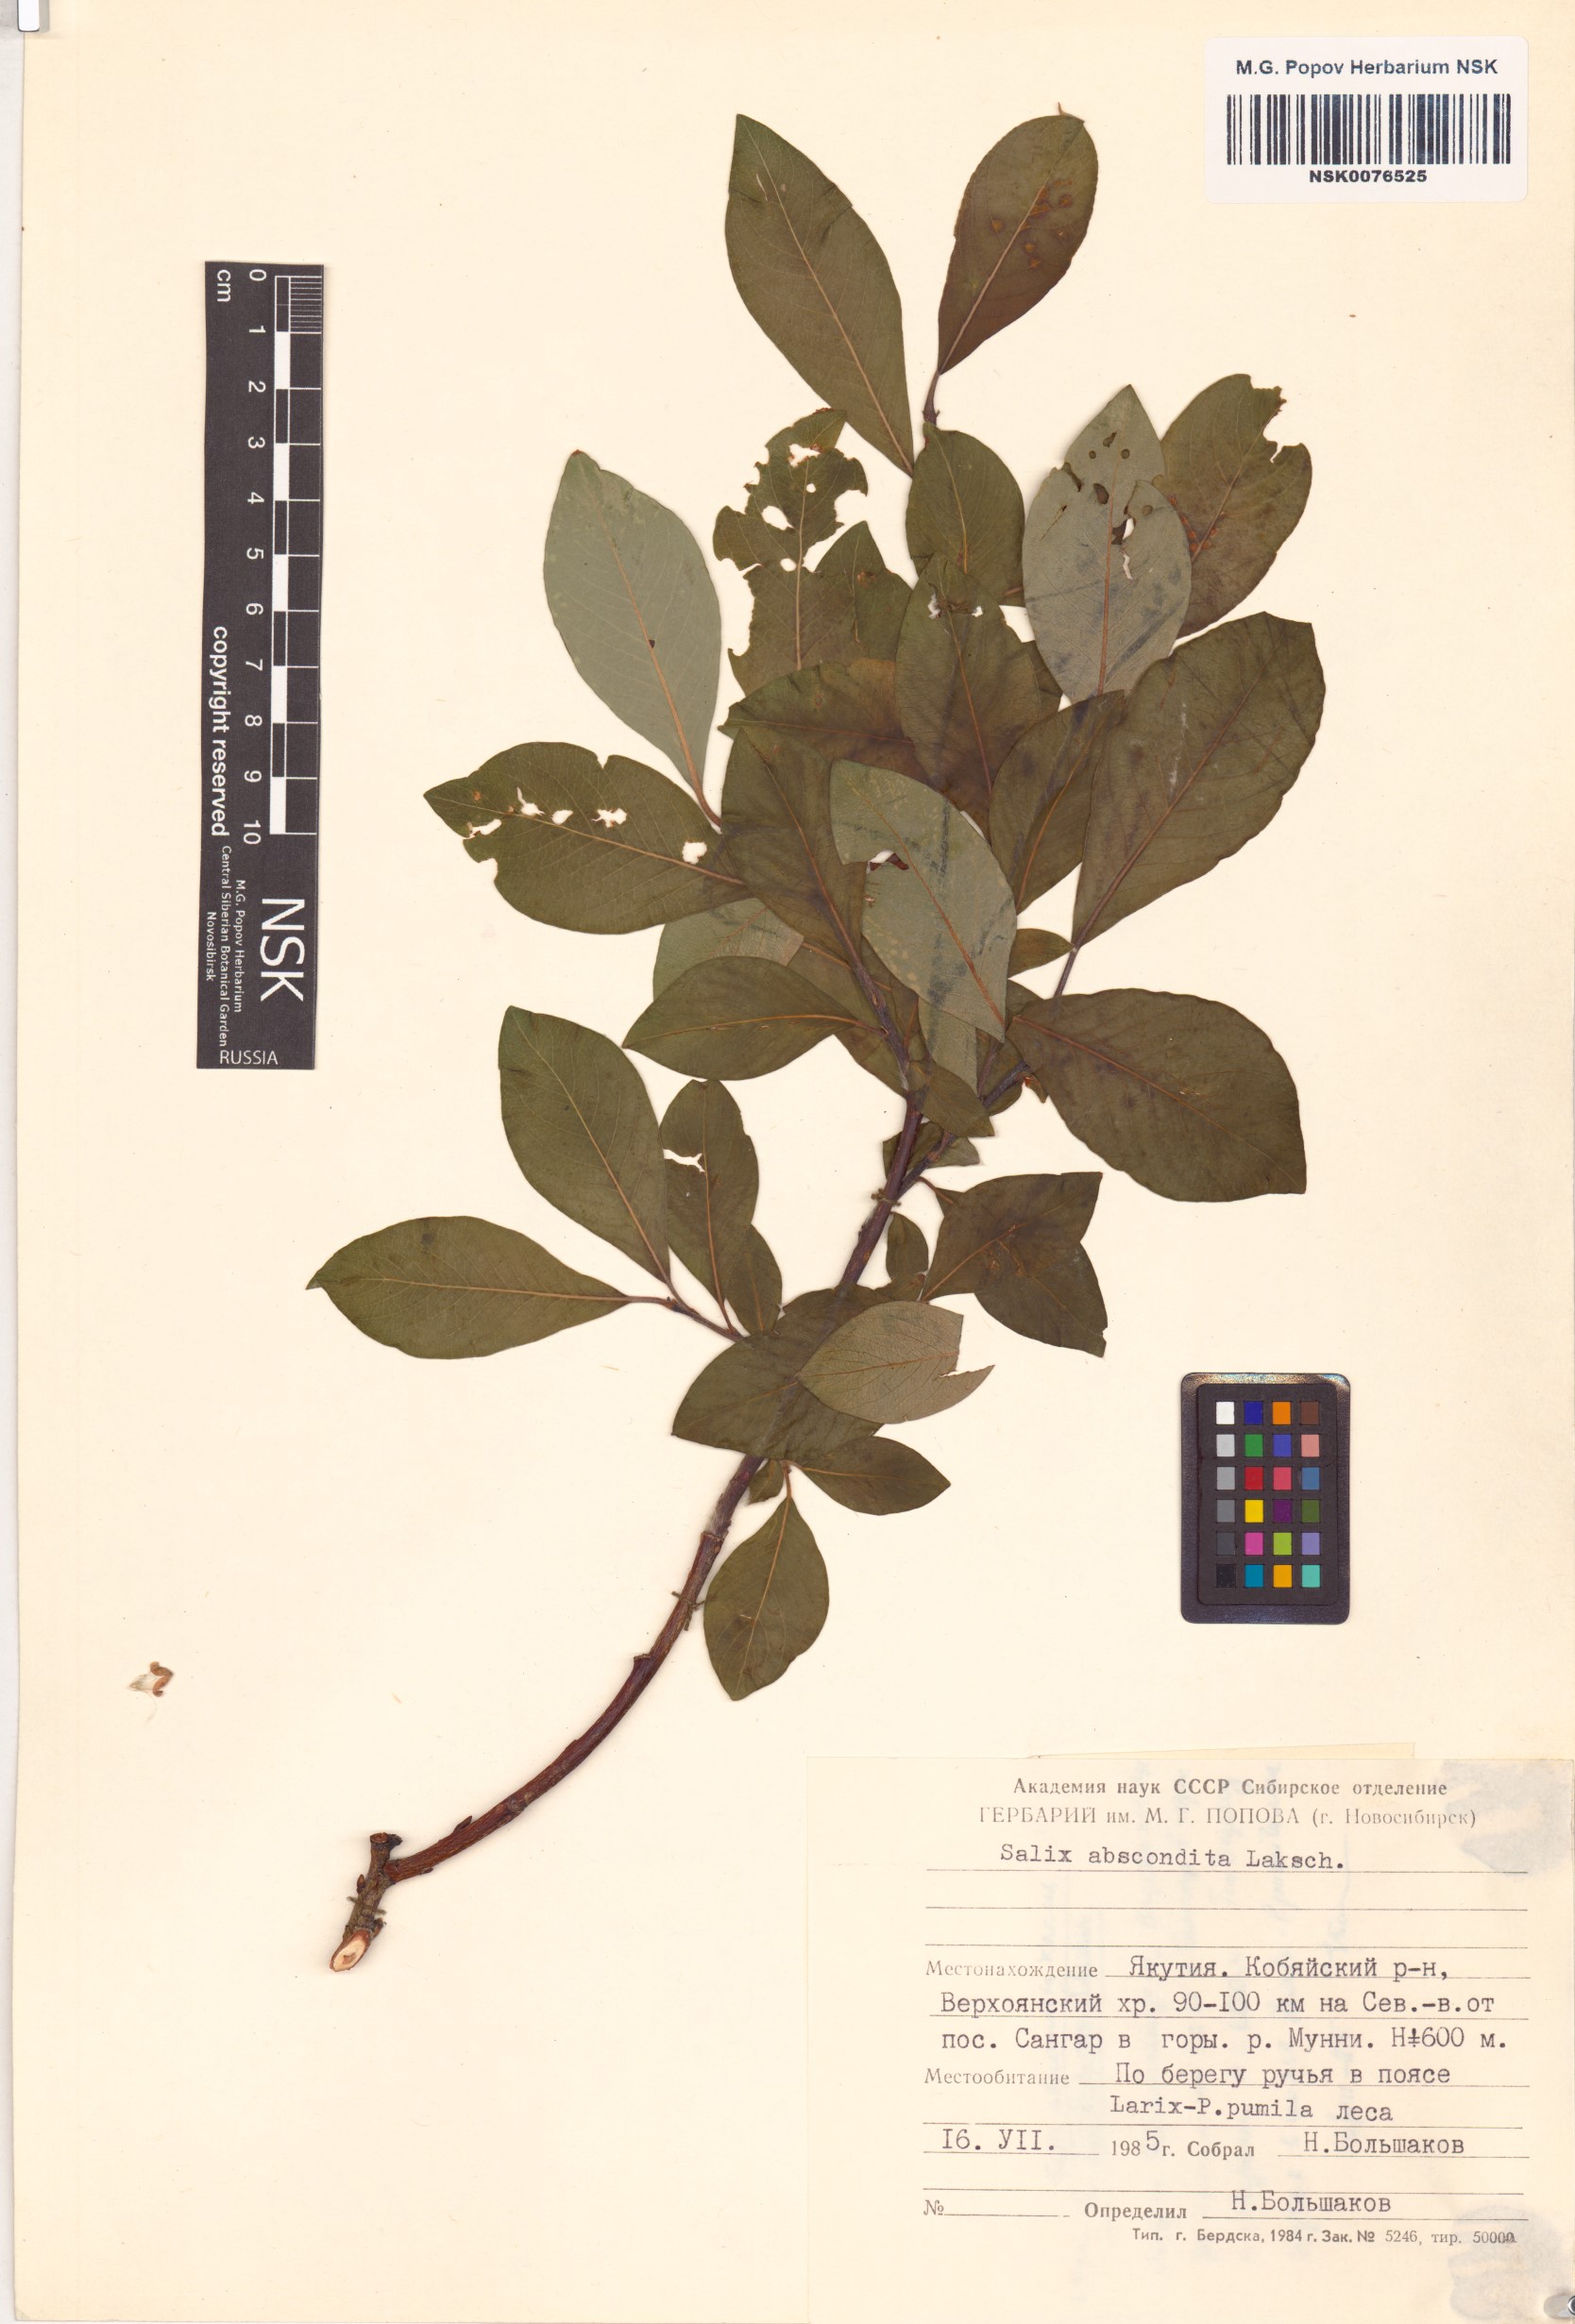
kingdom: Plantae
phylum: Tracheophyta
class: Magnoliopsida
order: Malpighiales
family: Salicaceae
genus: Salix
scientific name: Salix abscondita
